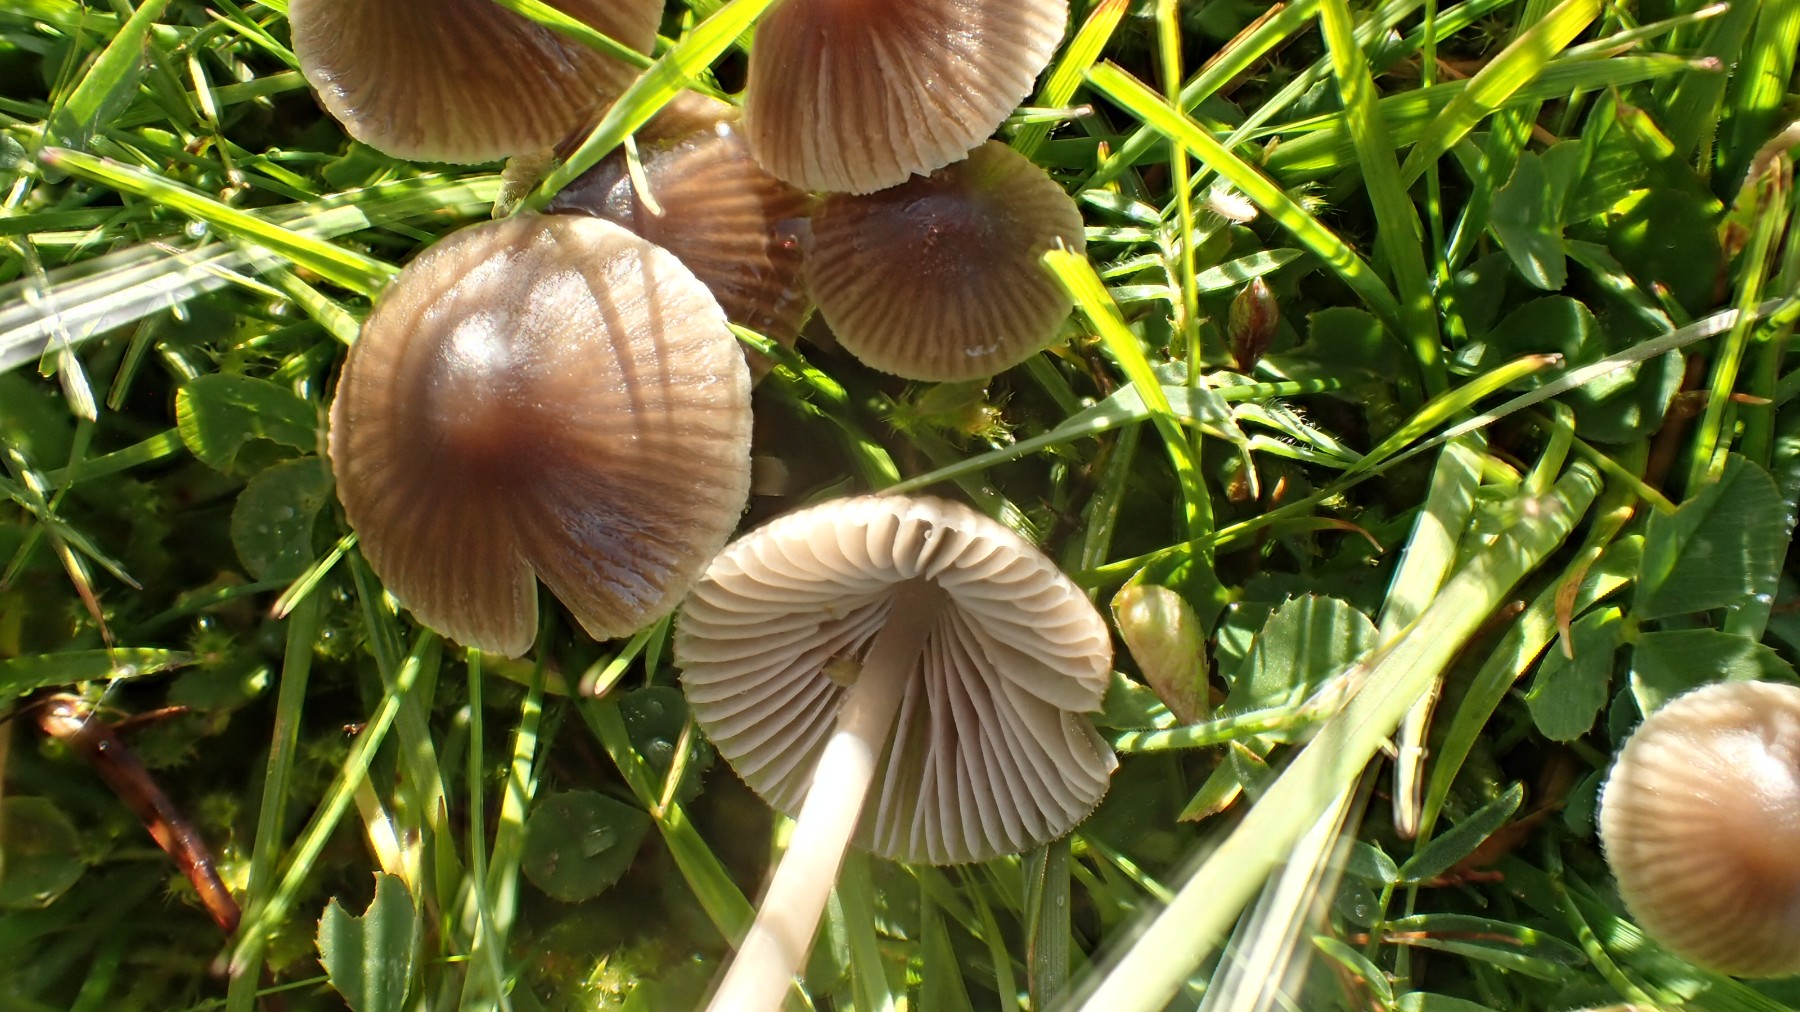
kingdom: Fungi
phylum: Basidiomycota
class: Agaricomycetes
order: Agaricales
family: Mycenaceae
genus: Mycena
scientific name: Mycena
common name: huesvamp
